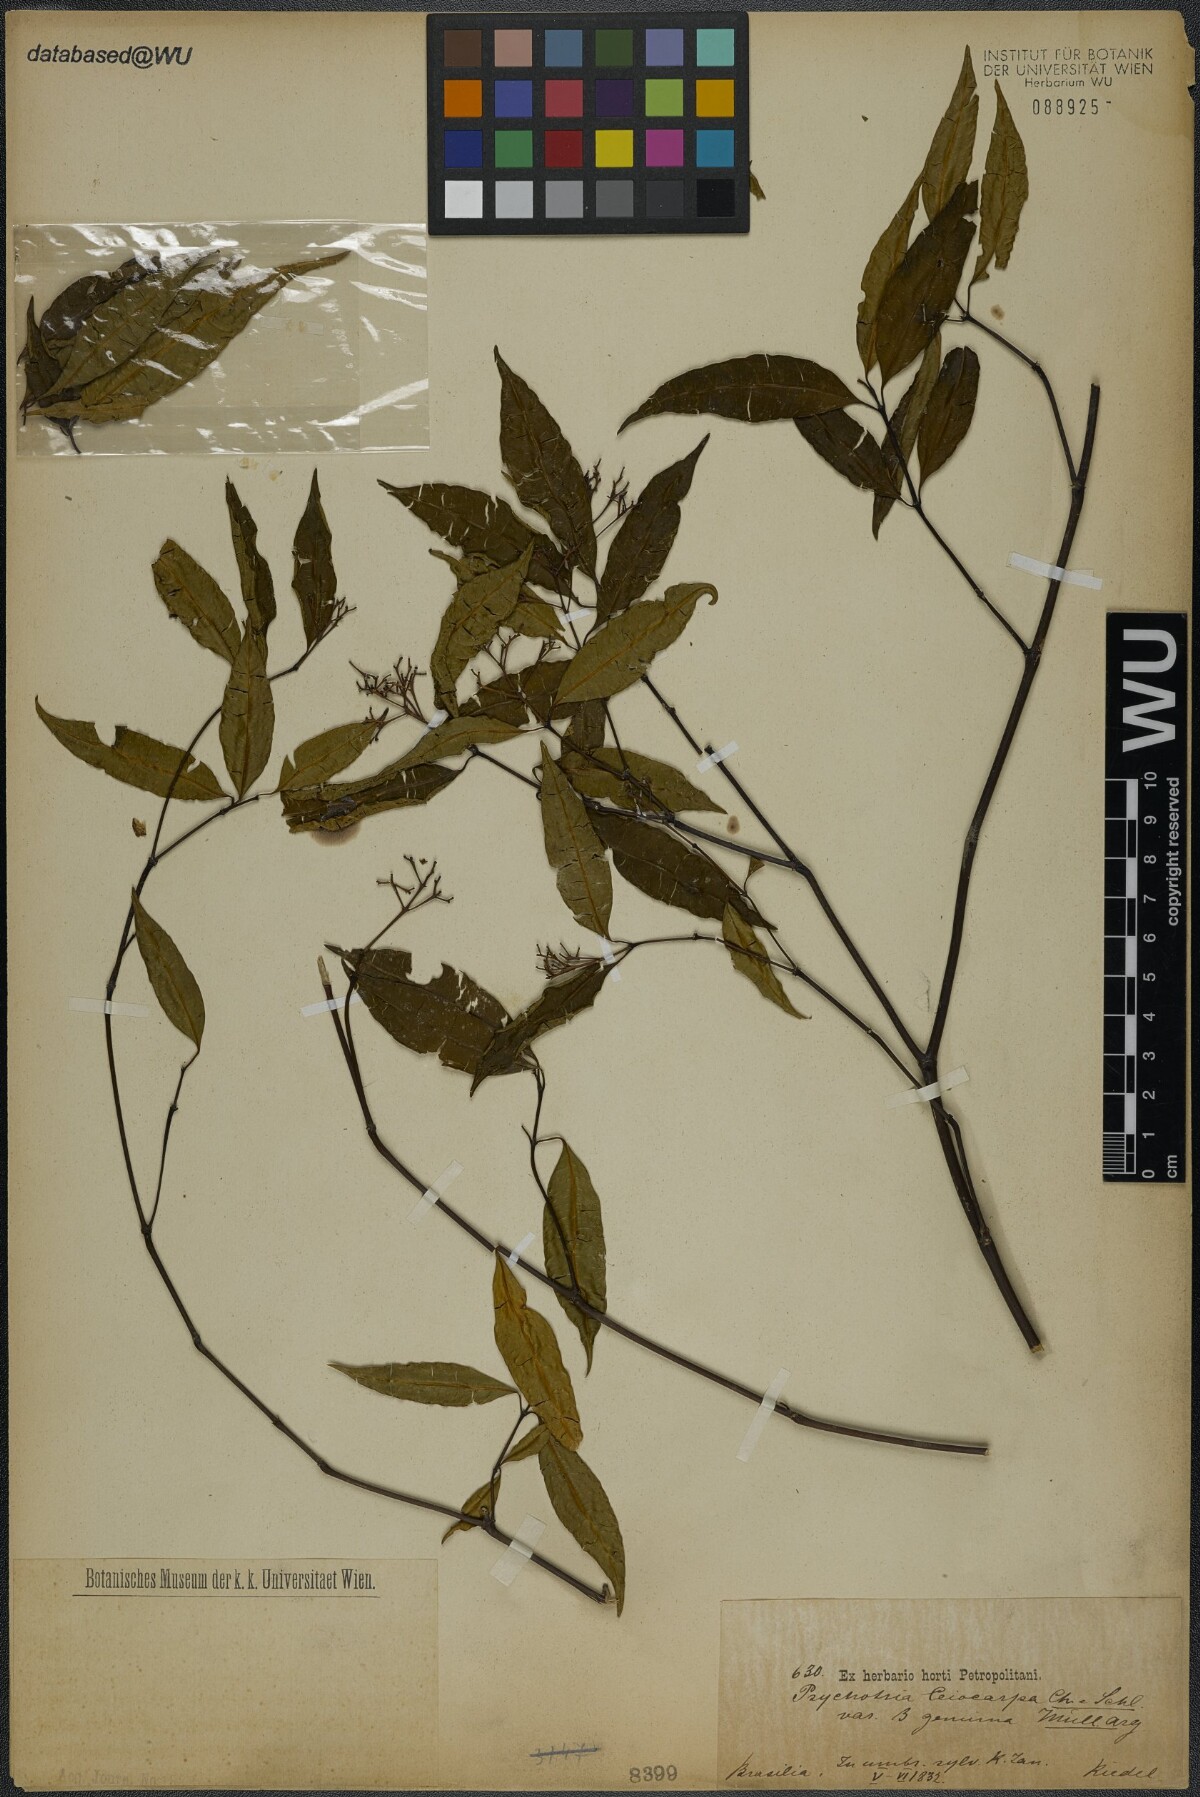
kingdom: Plantae
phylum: Tracheophyta
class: Magnoliopsida
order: Gentianales
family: Rubiaceae
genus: Psychotria
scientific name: Psychotria leiocarpa
